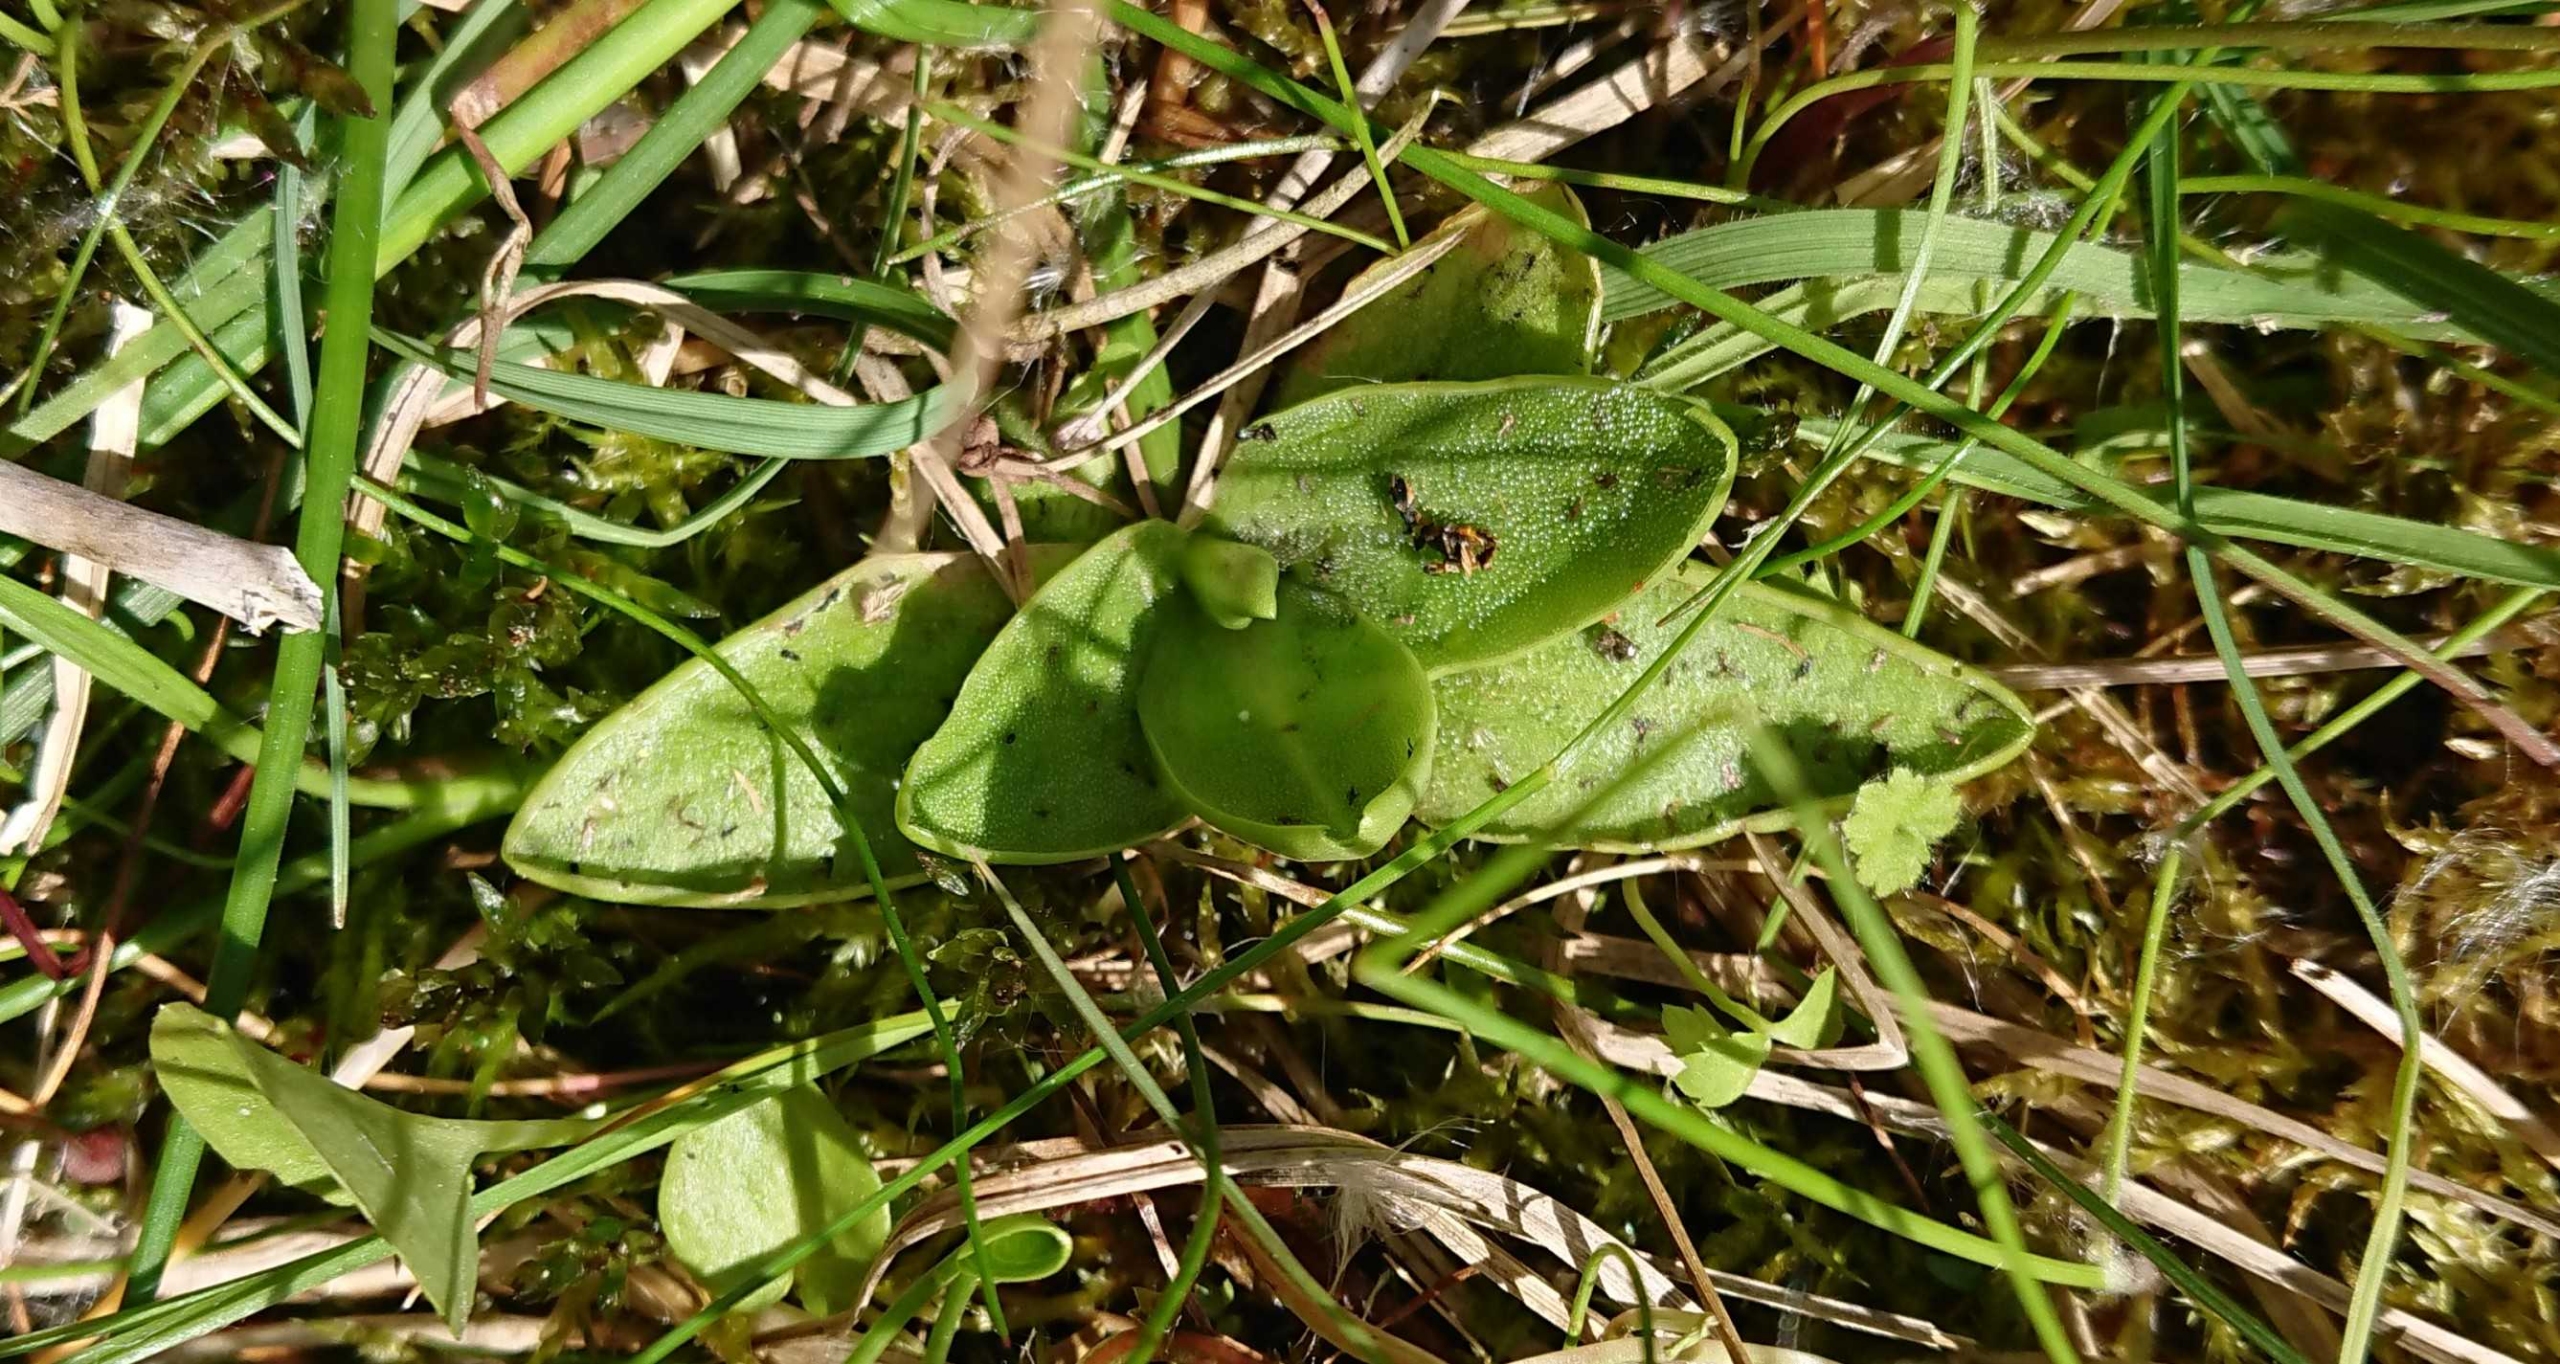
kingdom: Plantae
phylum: Tracheophyta
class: Magnoliopsida
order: Lamiales
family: Lentibulariaceae
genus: Pinguicula
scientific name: Pinguicula vulgaris
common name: Vibefedt
